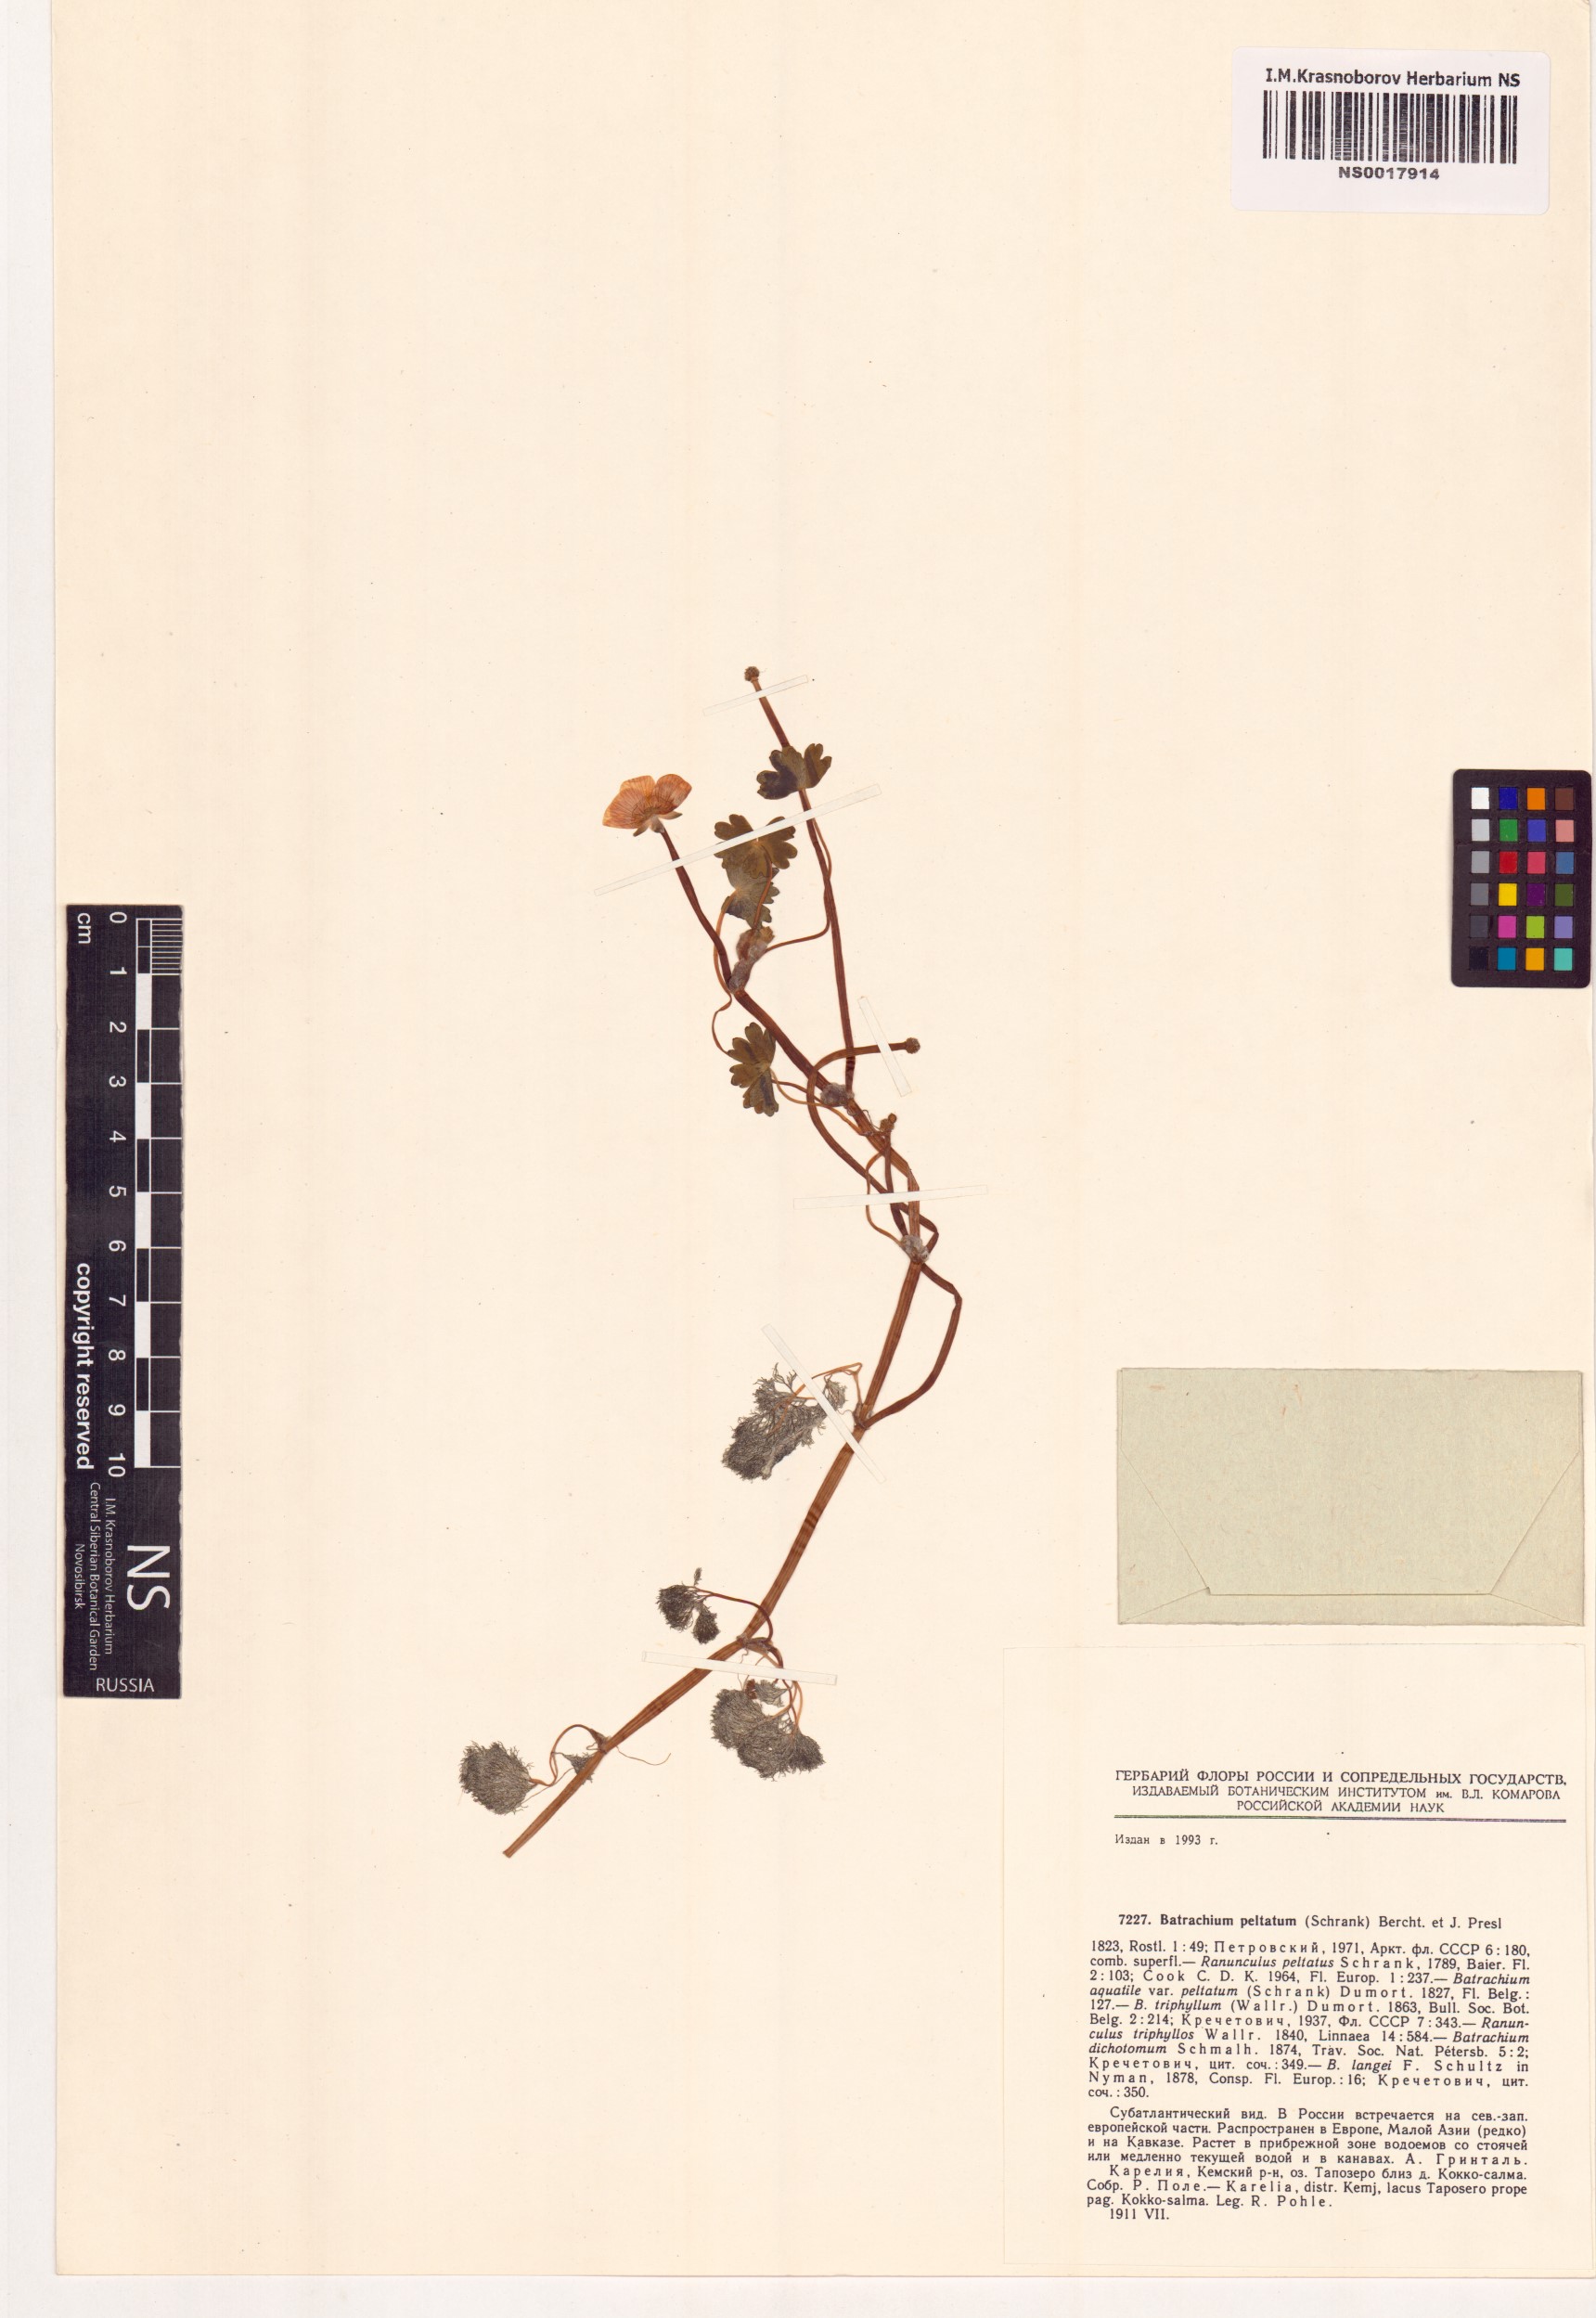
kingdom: Plantae
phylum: Tracheophyta
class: Magnoliopsida
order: Ranunculales
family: Ranunculaceae
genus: Ranunculus
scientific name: Ranunculus peltatus
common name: Pond water-crowfoot
